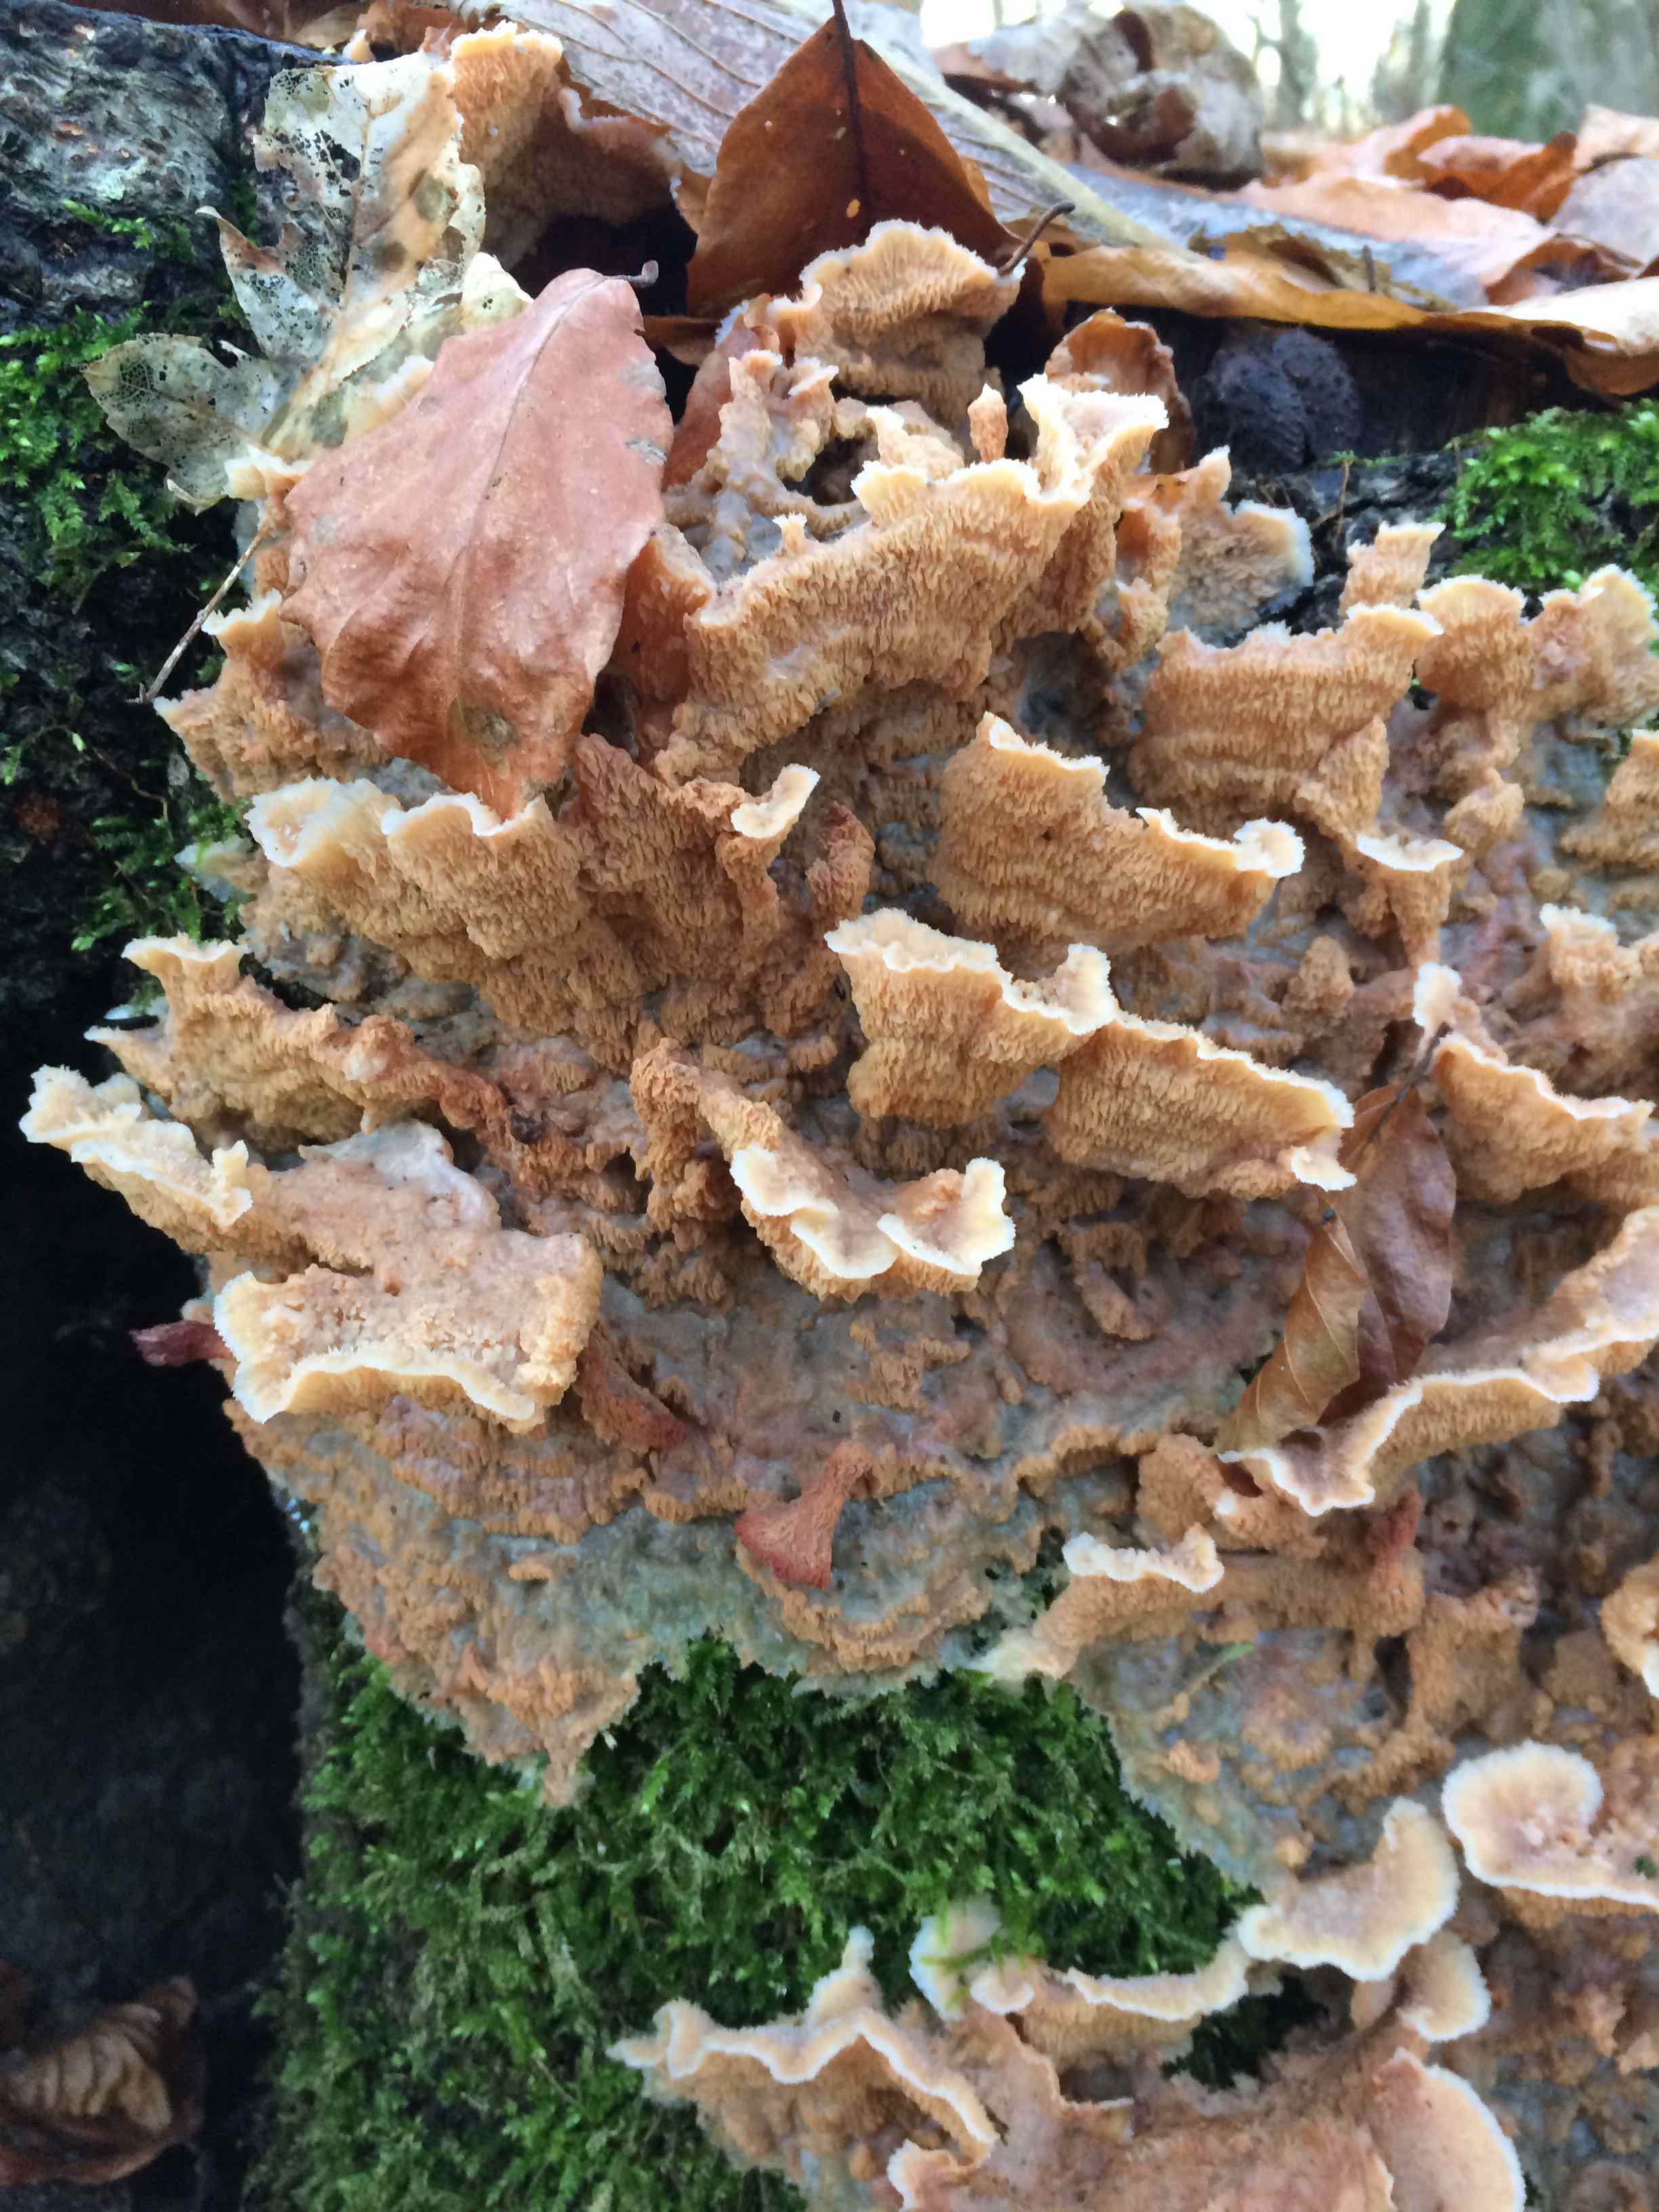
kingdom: Fungi
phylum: Basidiomycota
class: Agaricomycetes
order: Polyporales
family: Meruliaceae
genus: Phlebia
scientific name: Phlebia tremellosa
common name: bævrende åresvamp
